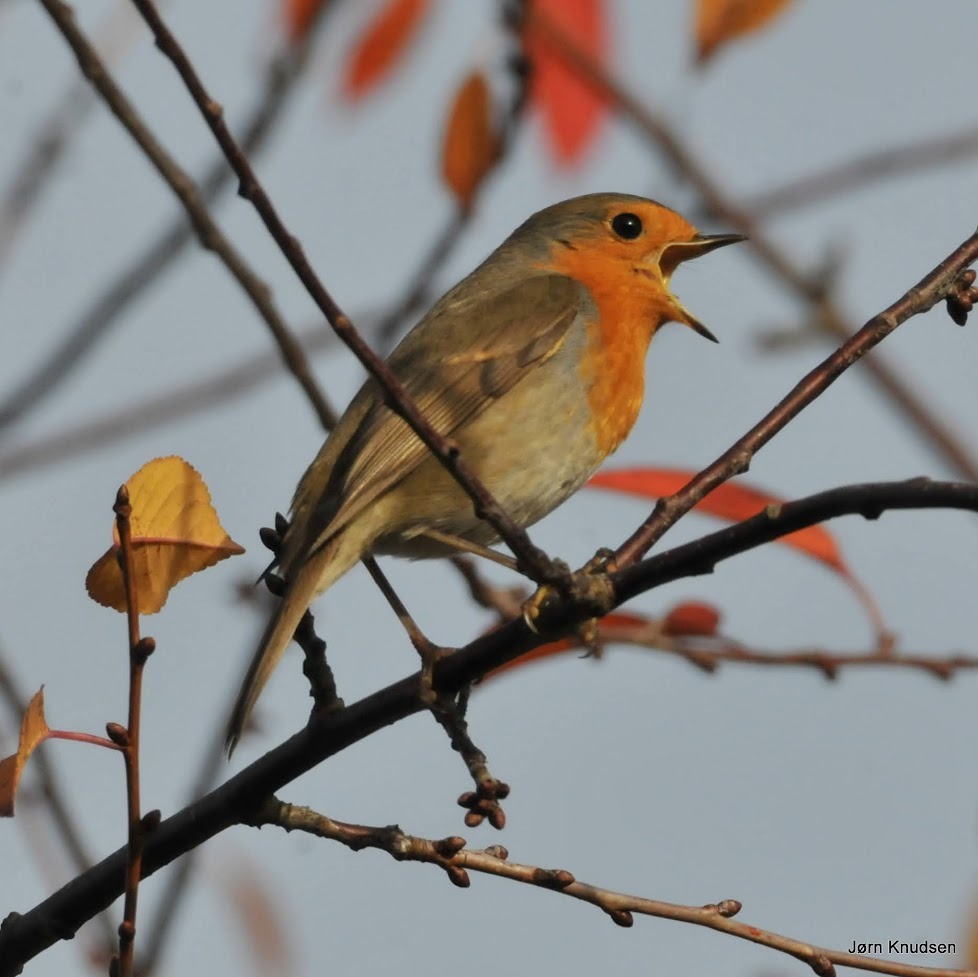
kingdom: Animalia
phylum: Chordata
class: Aves
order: Passeriformes
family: Muscicapidae
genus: Erithacus
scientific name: Erithacus rubecula
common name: Rødhals/rødkælk
